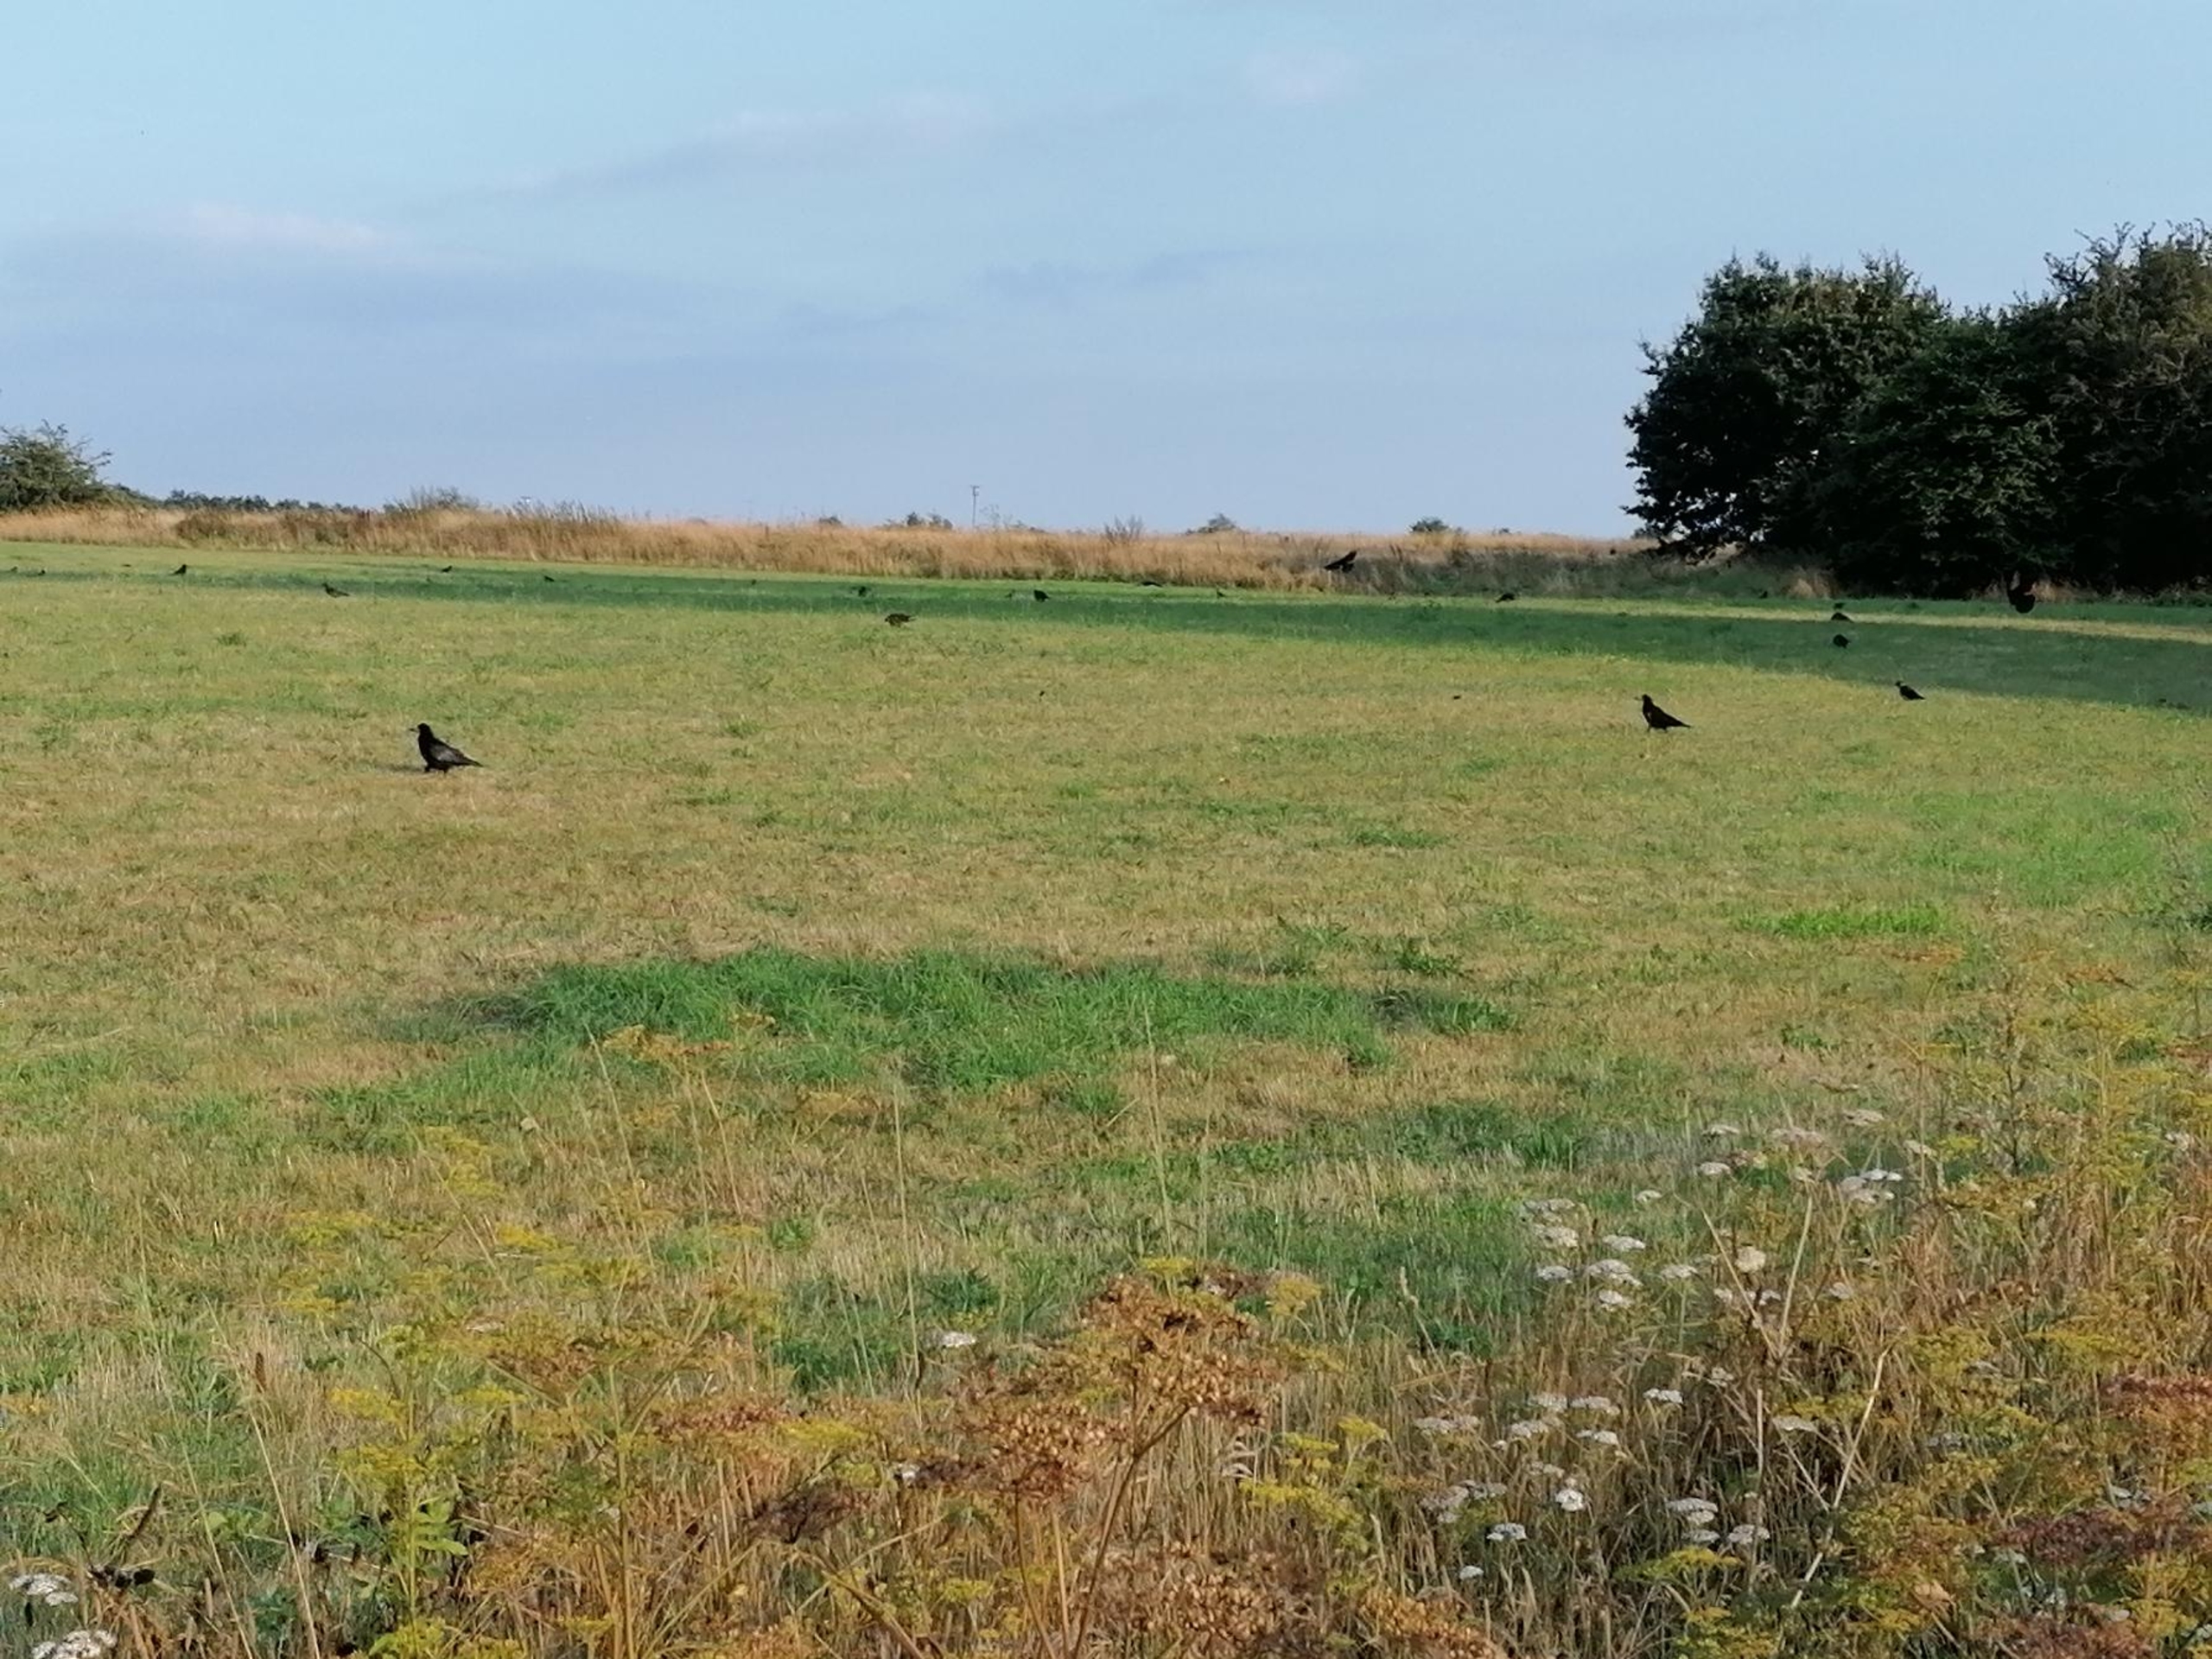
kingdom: Animalia
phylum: Chordata
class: Aves
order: Passeriformes
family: Corvidae
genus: Corvus
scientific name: Corvus frugilegus
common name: Råge
